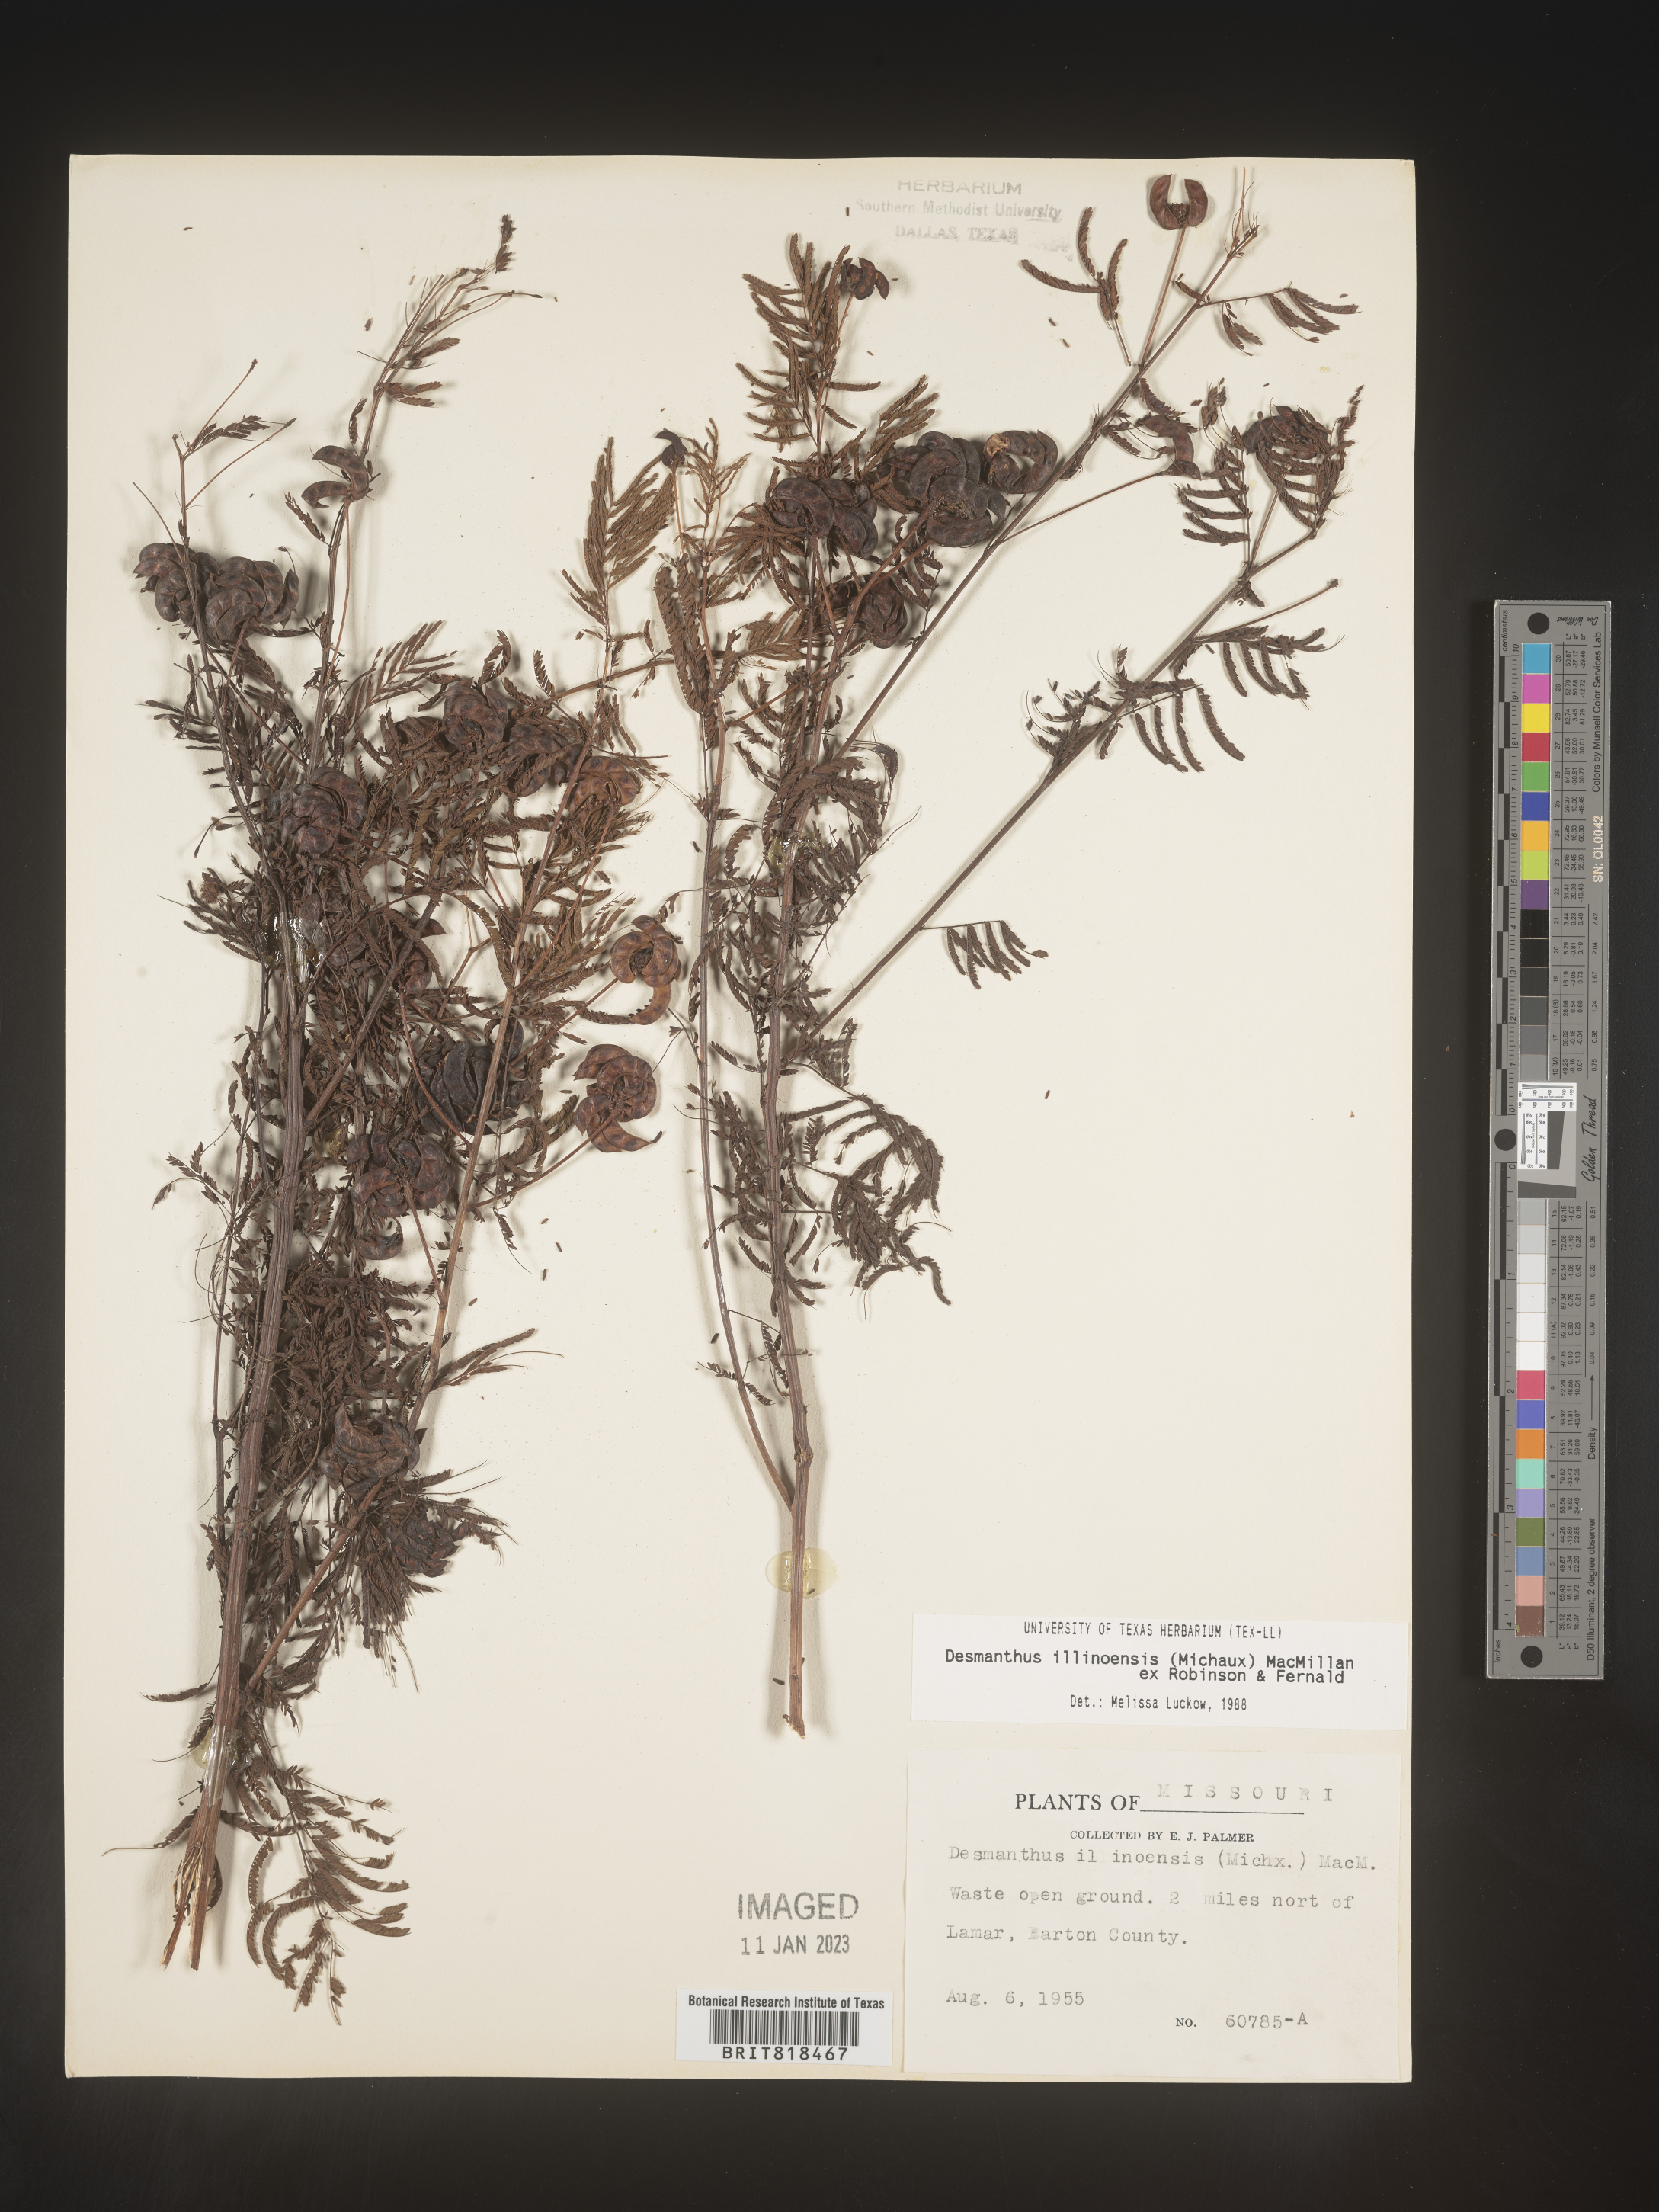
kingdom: Plantae
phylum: Tracheophyta
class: Magnoliopsida
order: Fabales
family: Fabaceae
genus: Desmanthus
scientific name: Desmanthus illinoensis
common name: Illinois bundle-flower
